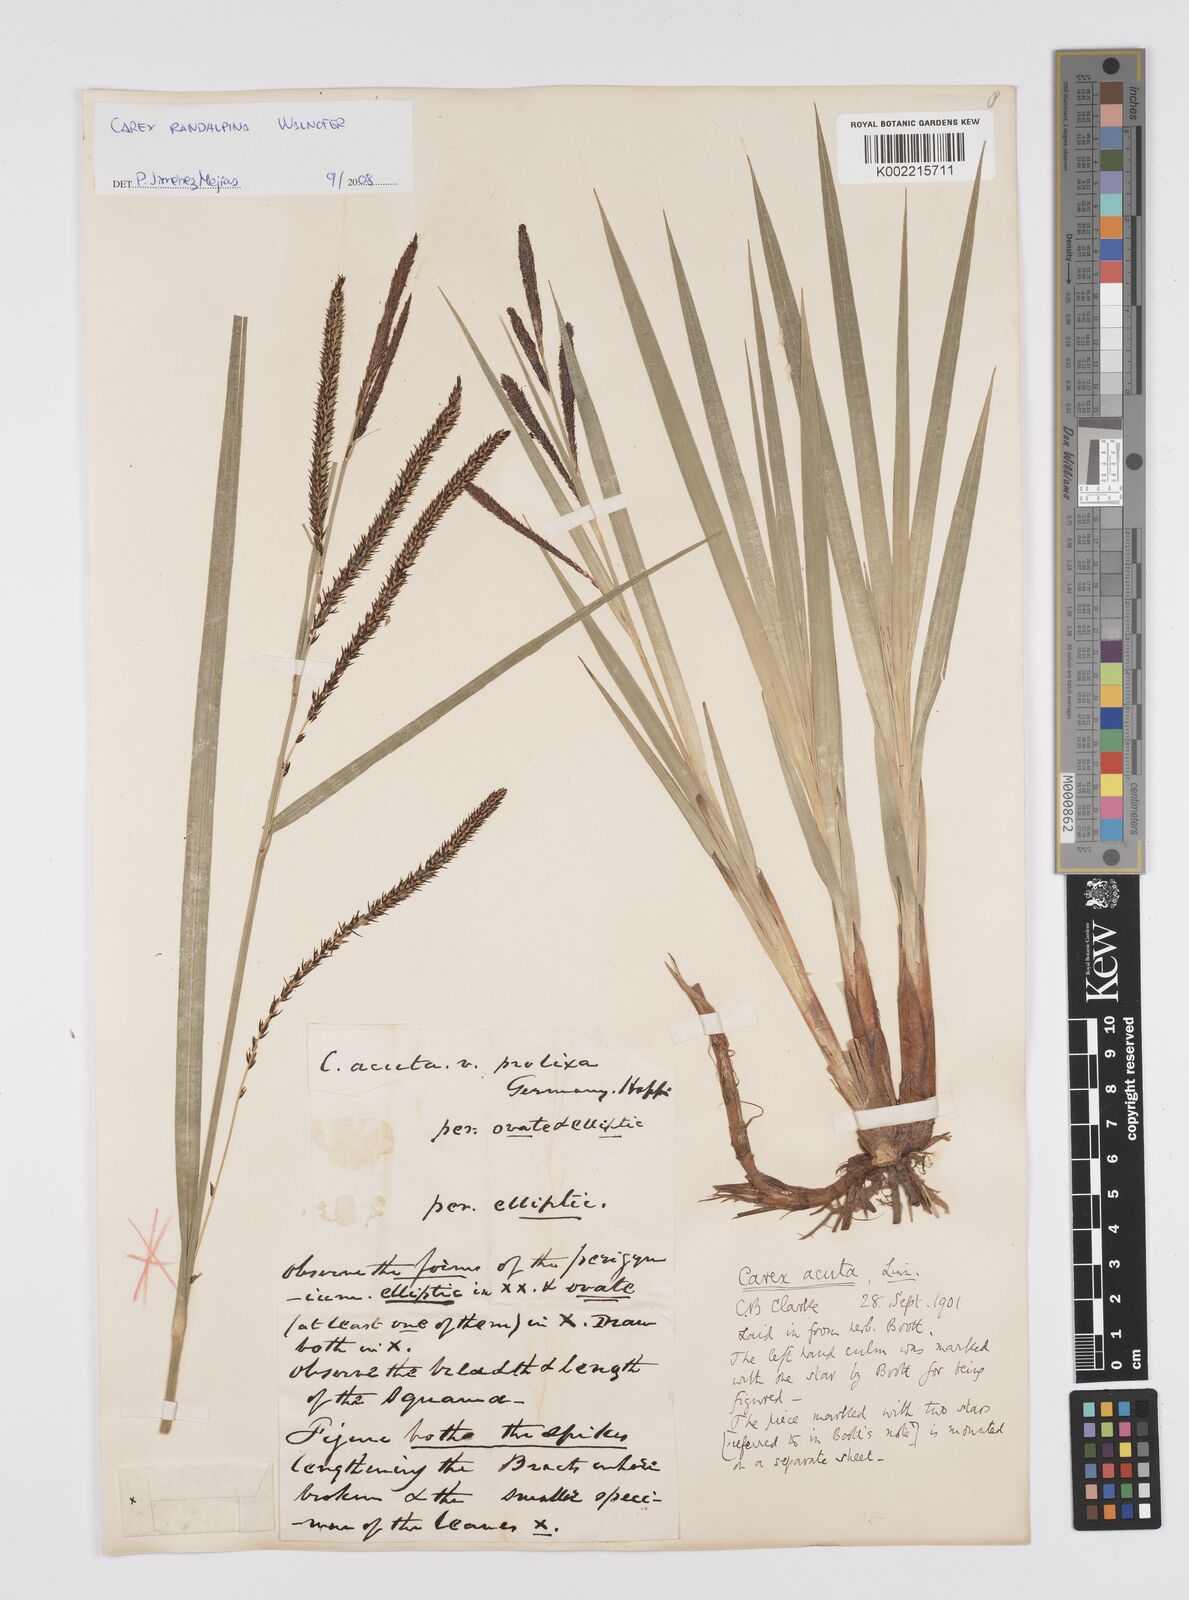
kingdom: Plantae
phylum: Tracheophyta
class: Liliopsida
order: Poales
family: Cyperaceae
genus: Carex
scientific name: Carex randalpina
